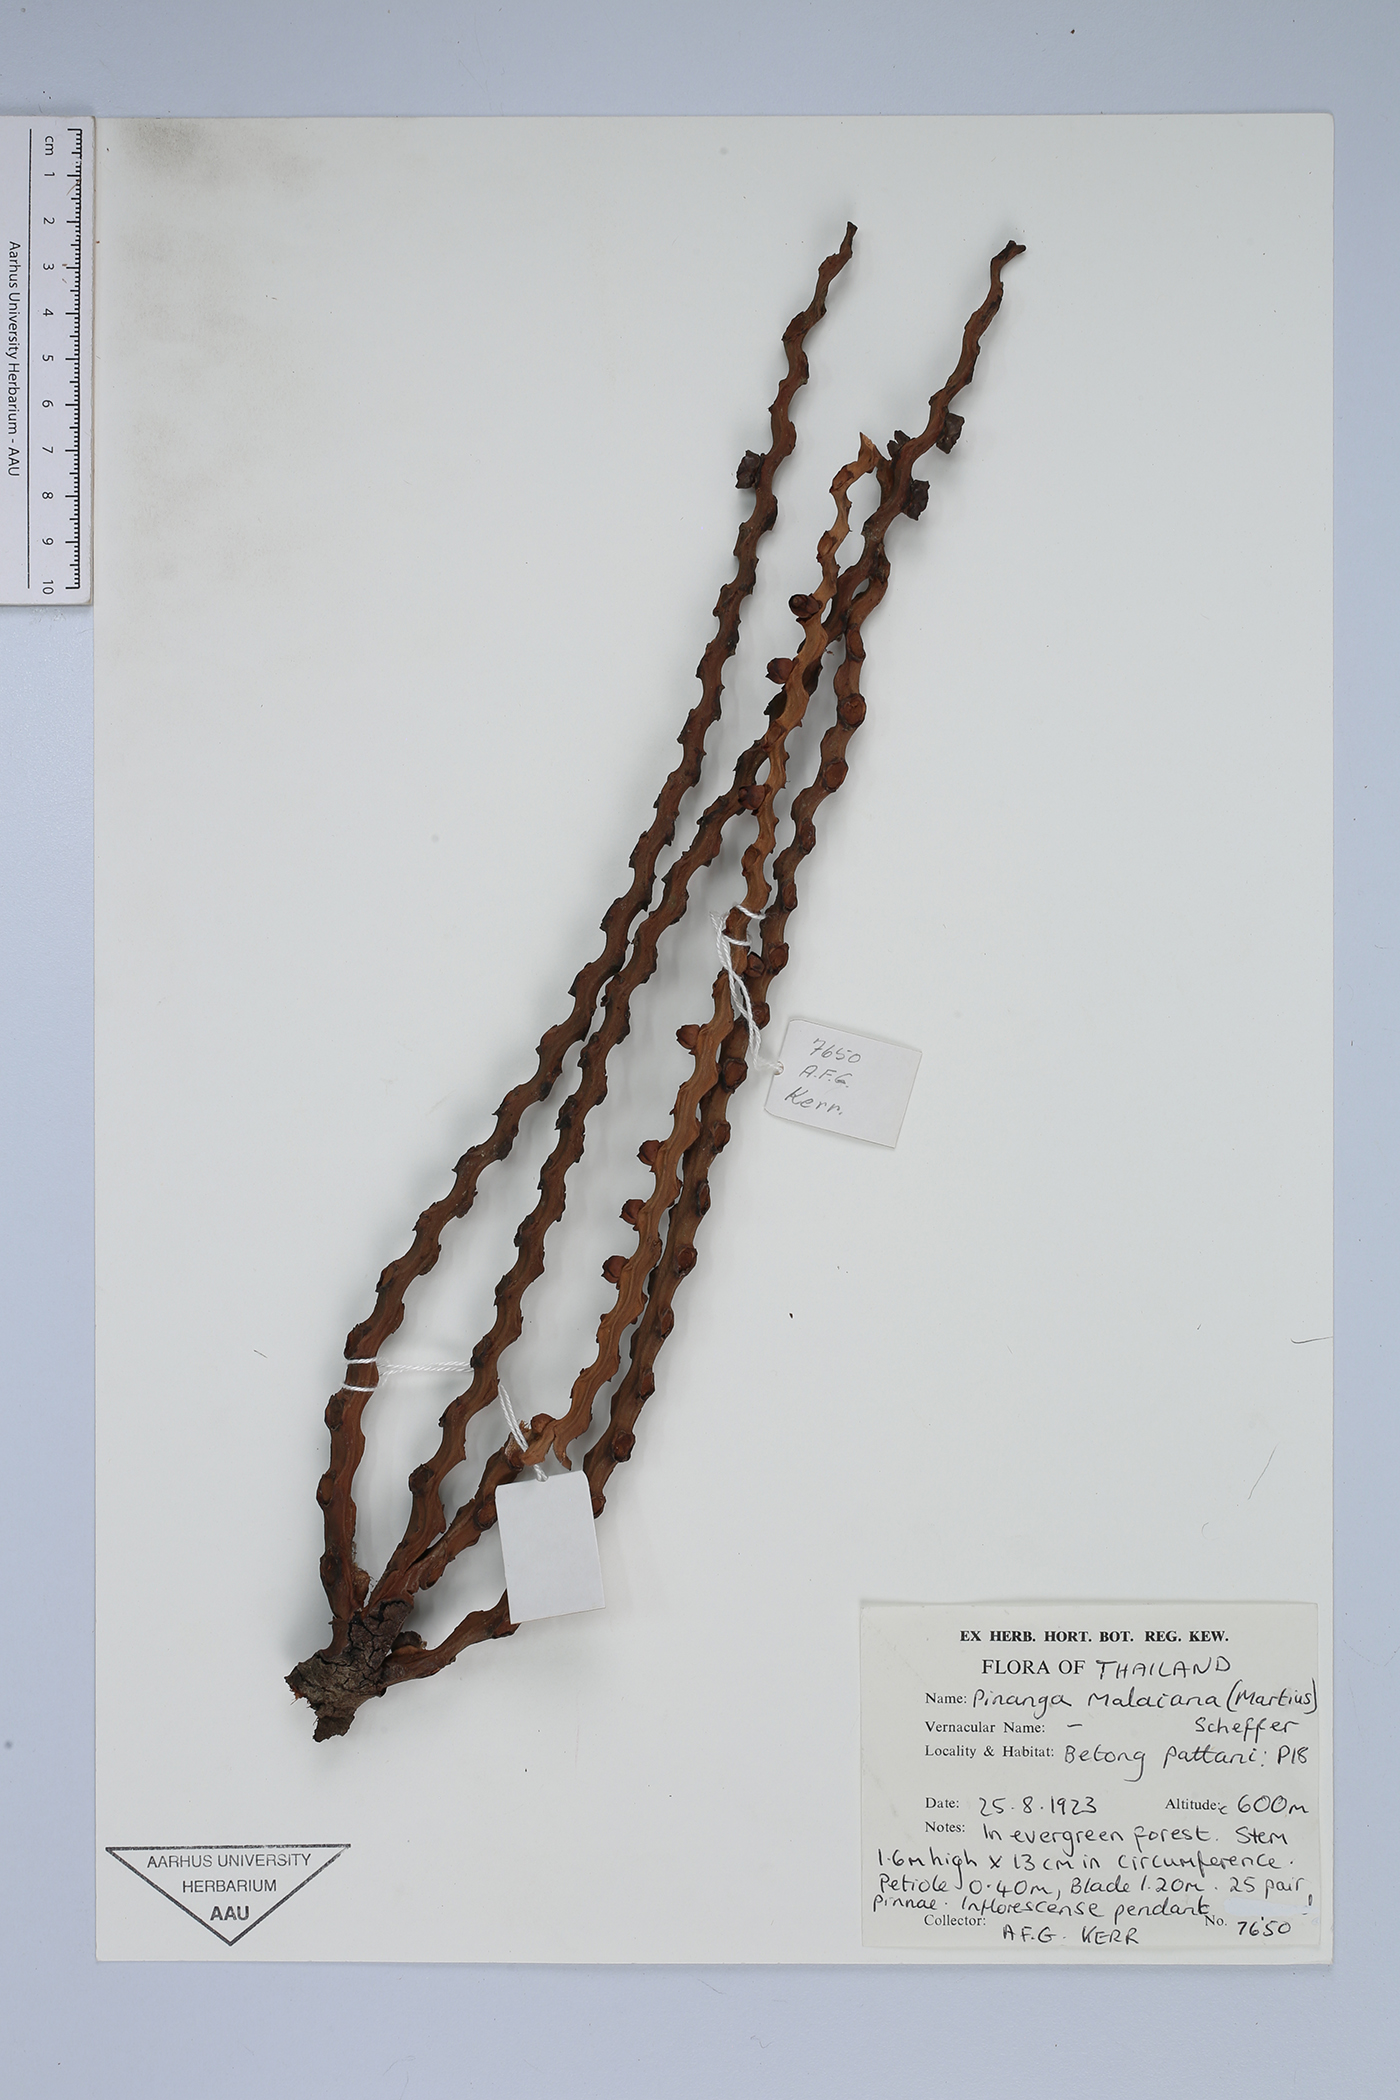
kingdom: Plantae
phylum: Tracheophyta
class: Liliopsida
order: Arecales
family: Arecaceae
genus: Pinanga
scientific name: Pinanga malaiana
